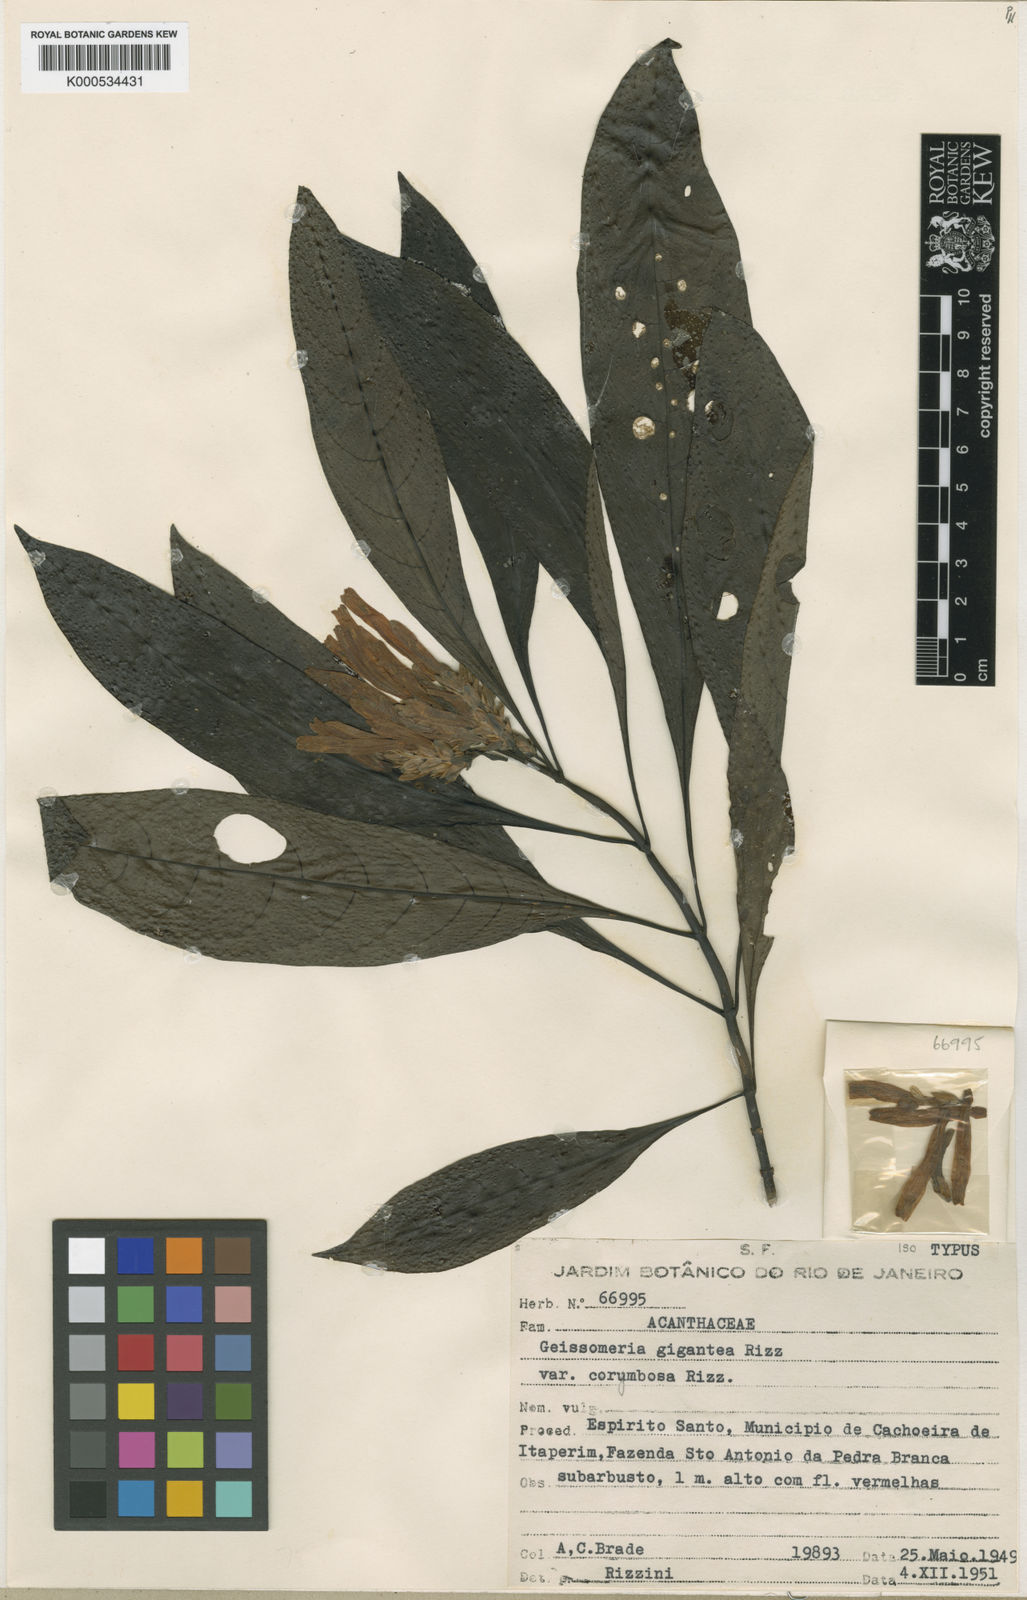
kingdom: Plantae
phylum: Tracheophyta
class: Magnoliopsida
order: Lamiales
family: Acanthaceae
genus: Aphelandra
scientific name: Aphelandra gigantea
